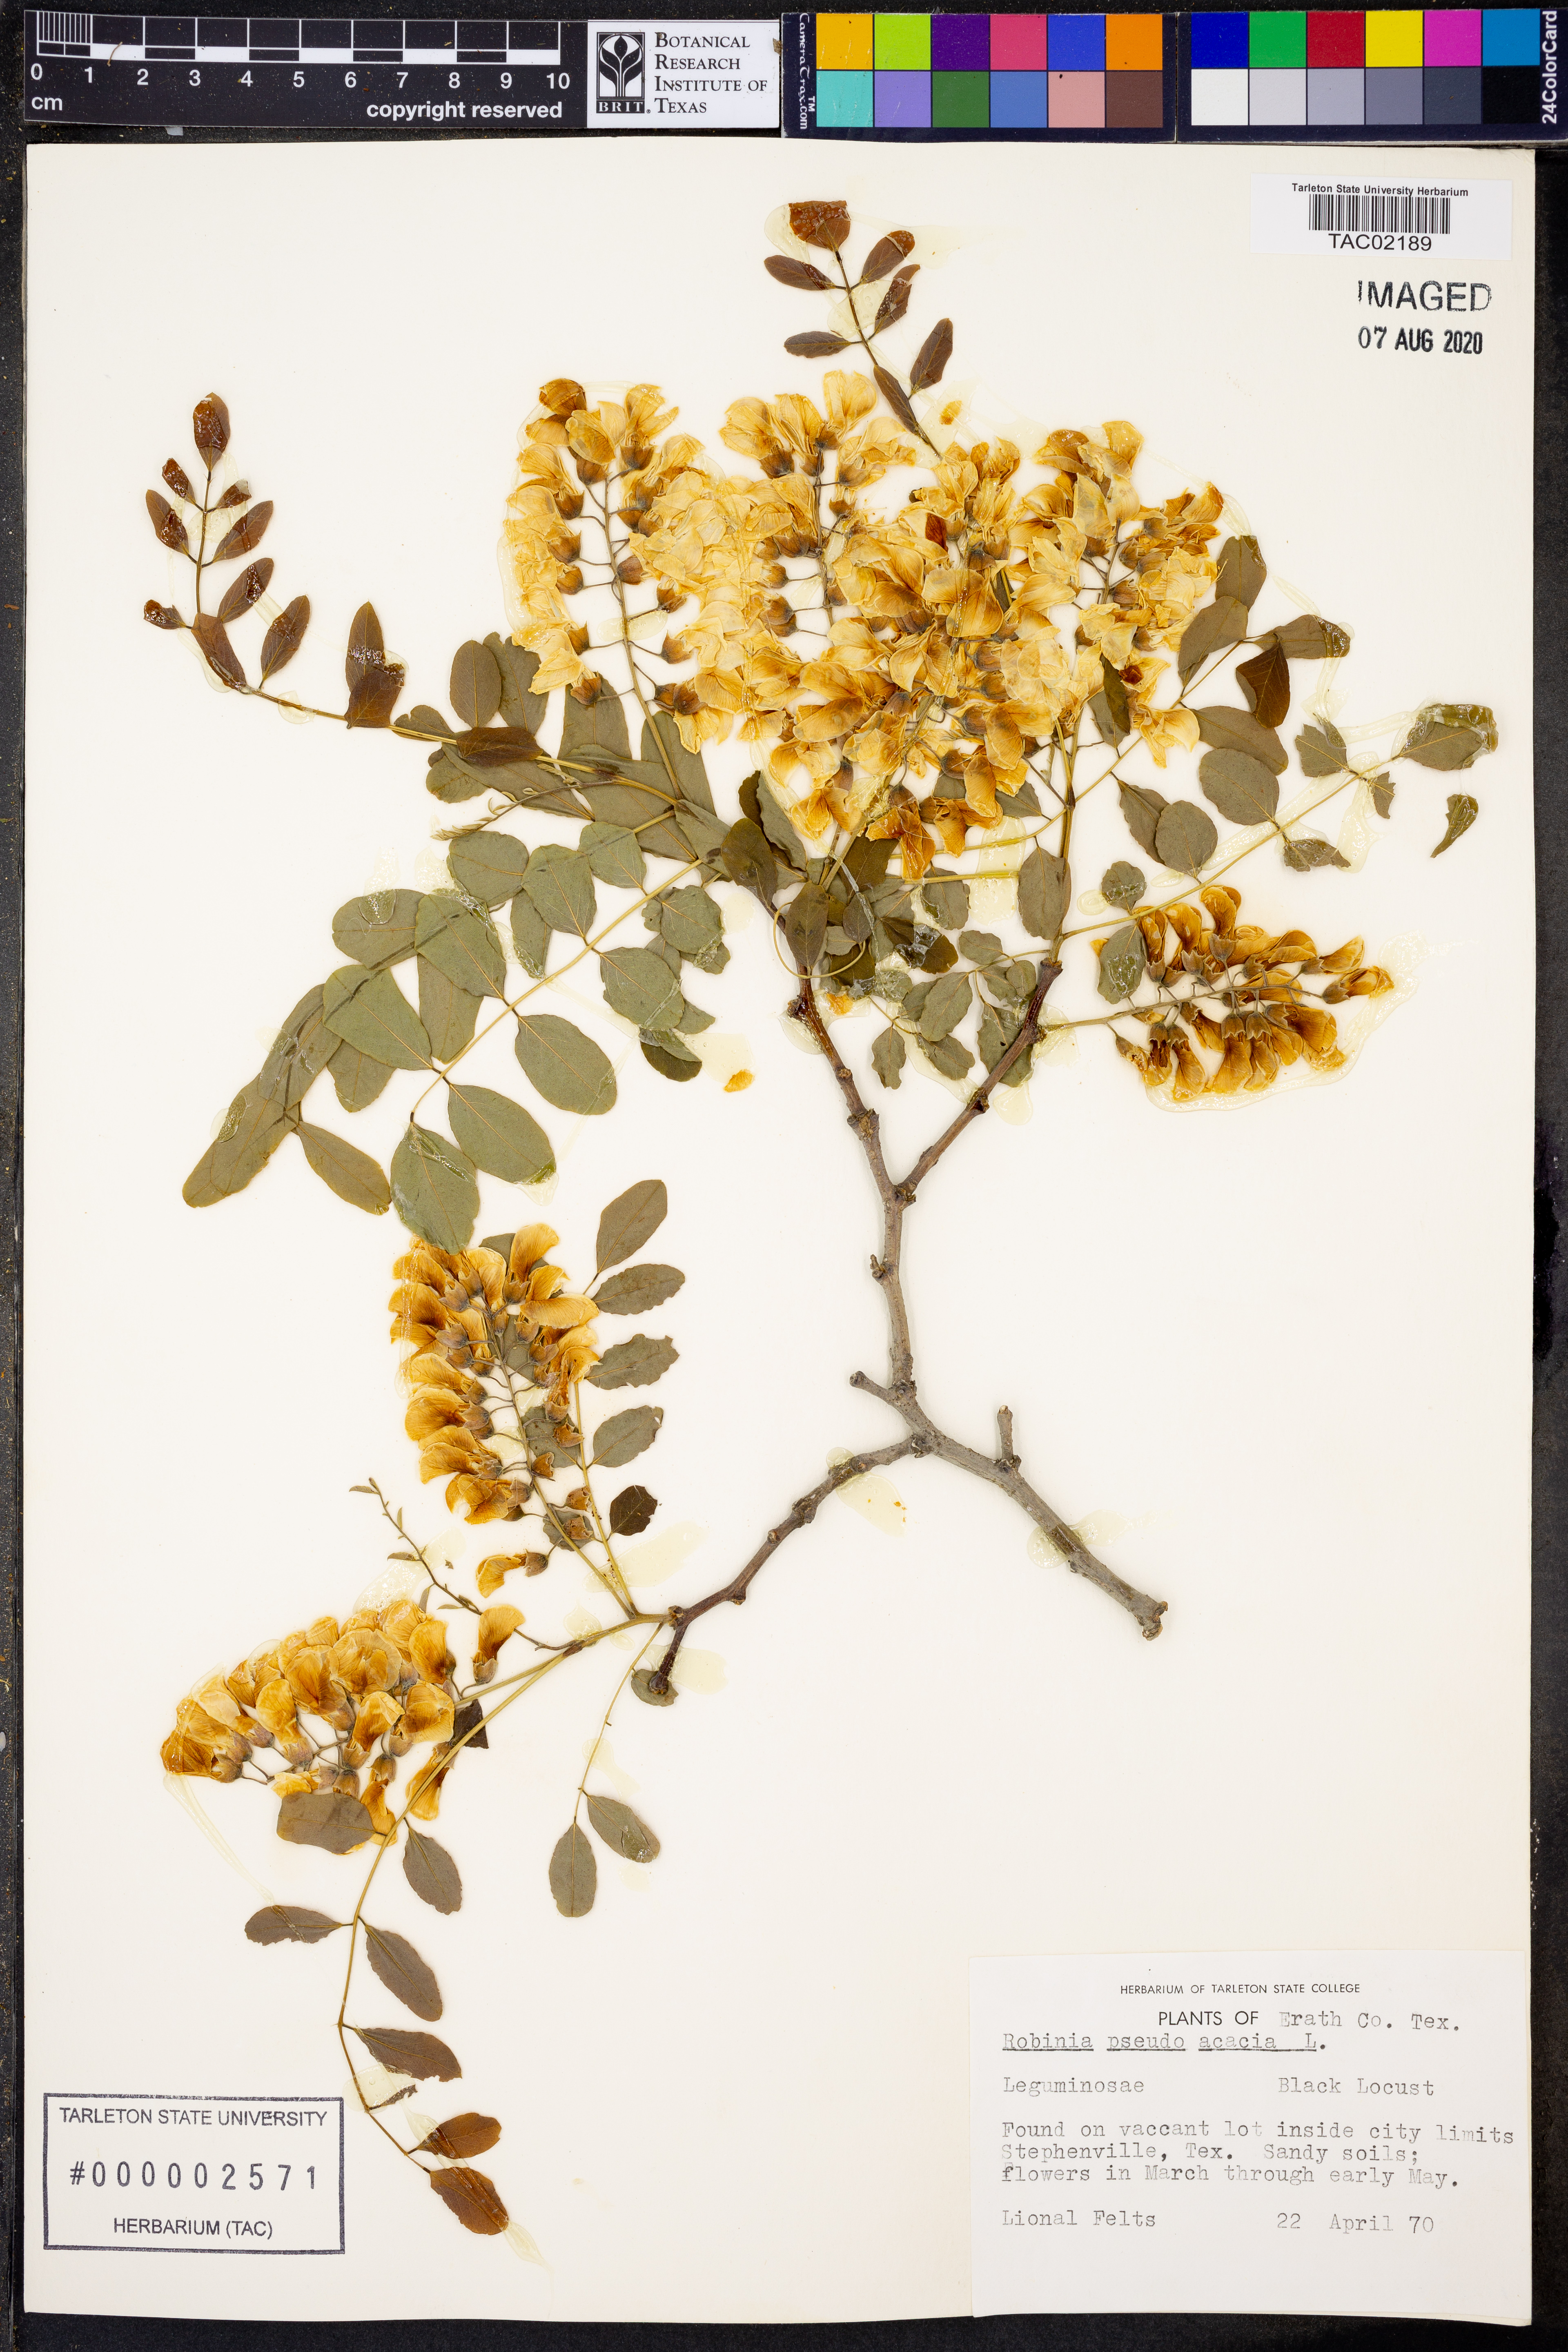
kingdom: Plantae
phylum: Tracheophyta
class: Magnoliopsida
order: Fabales
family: Fabaceae
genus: Robinia
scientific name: Robinia pseudoacacia
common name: Black locust
